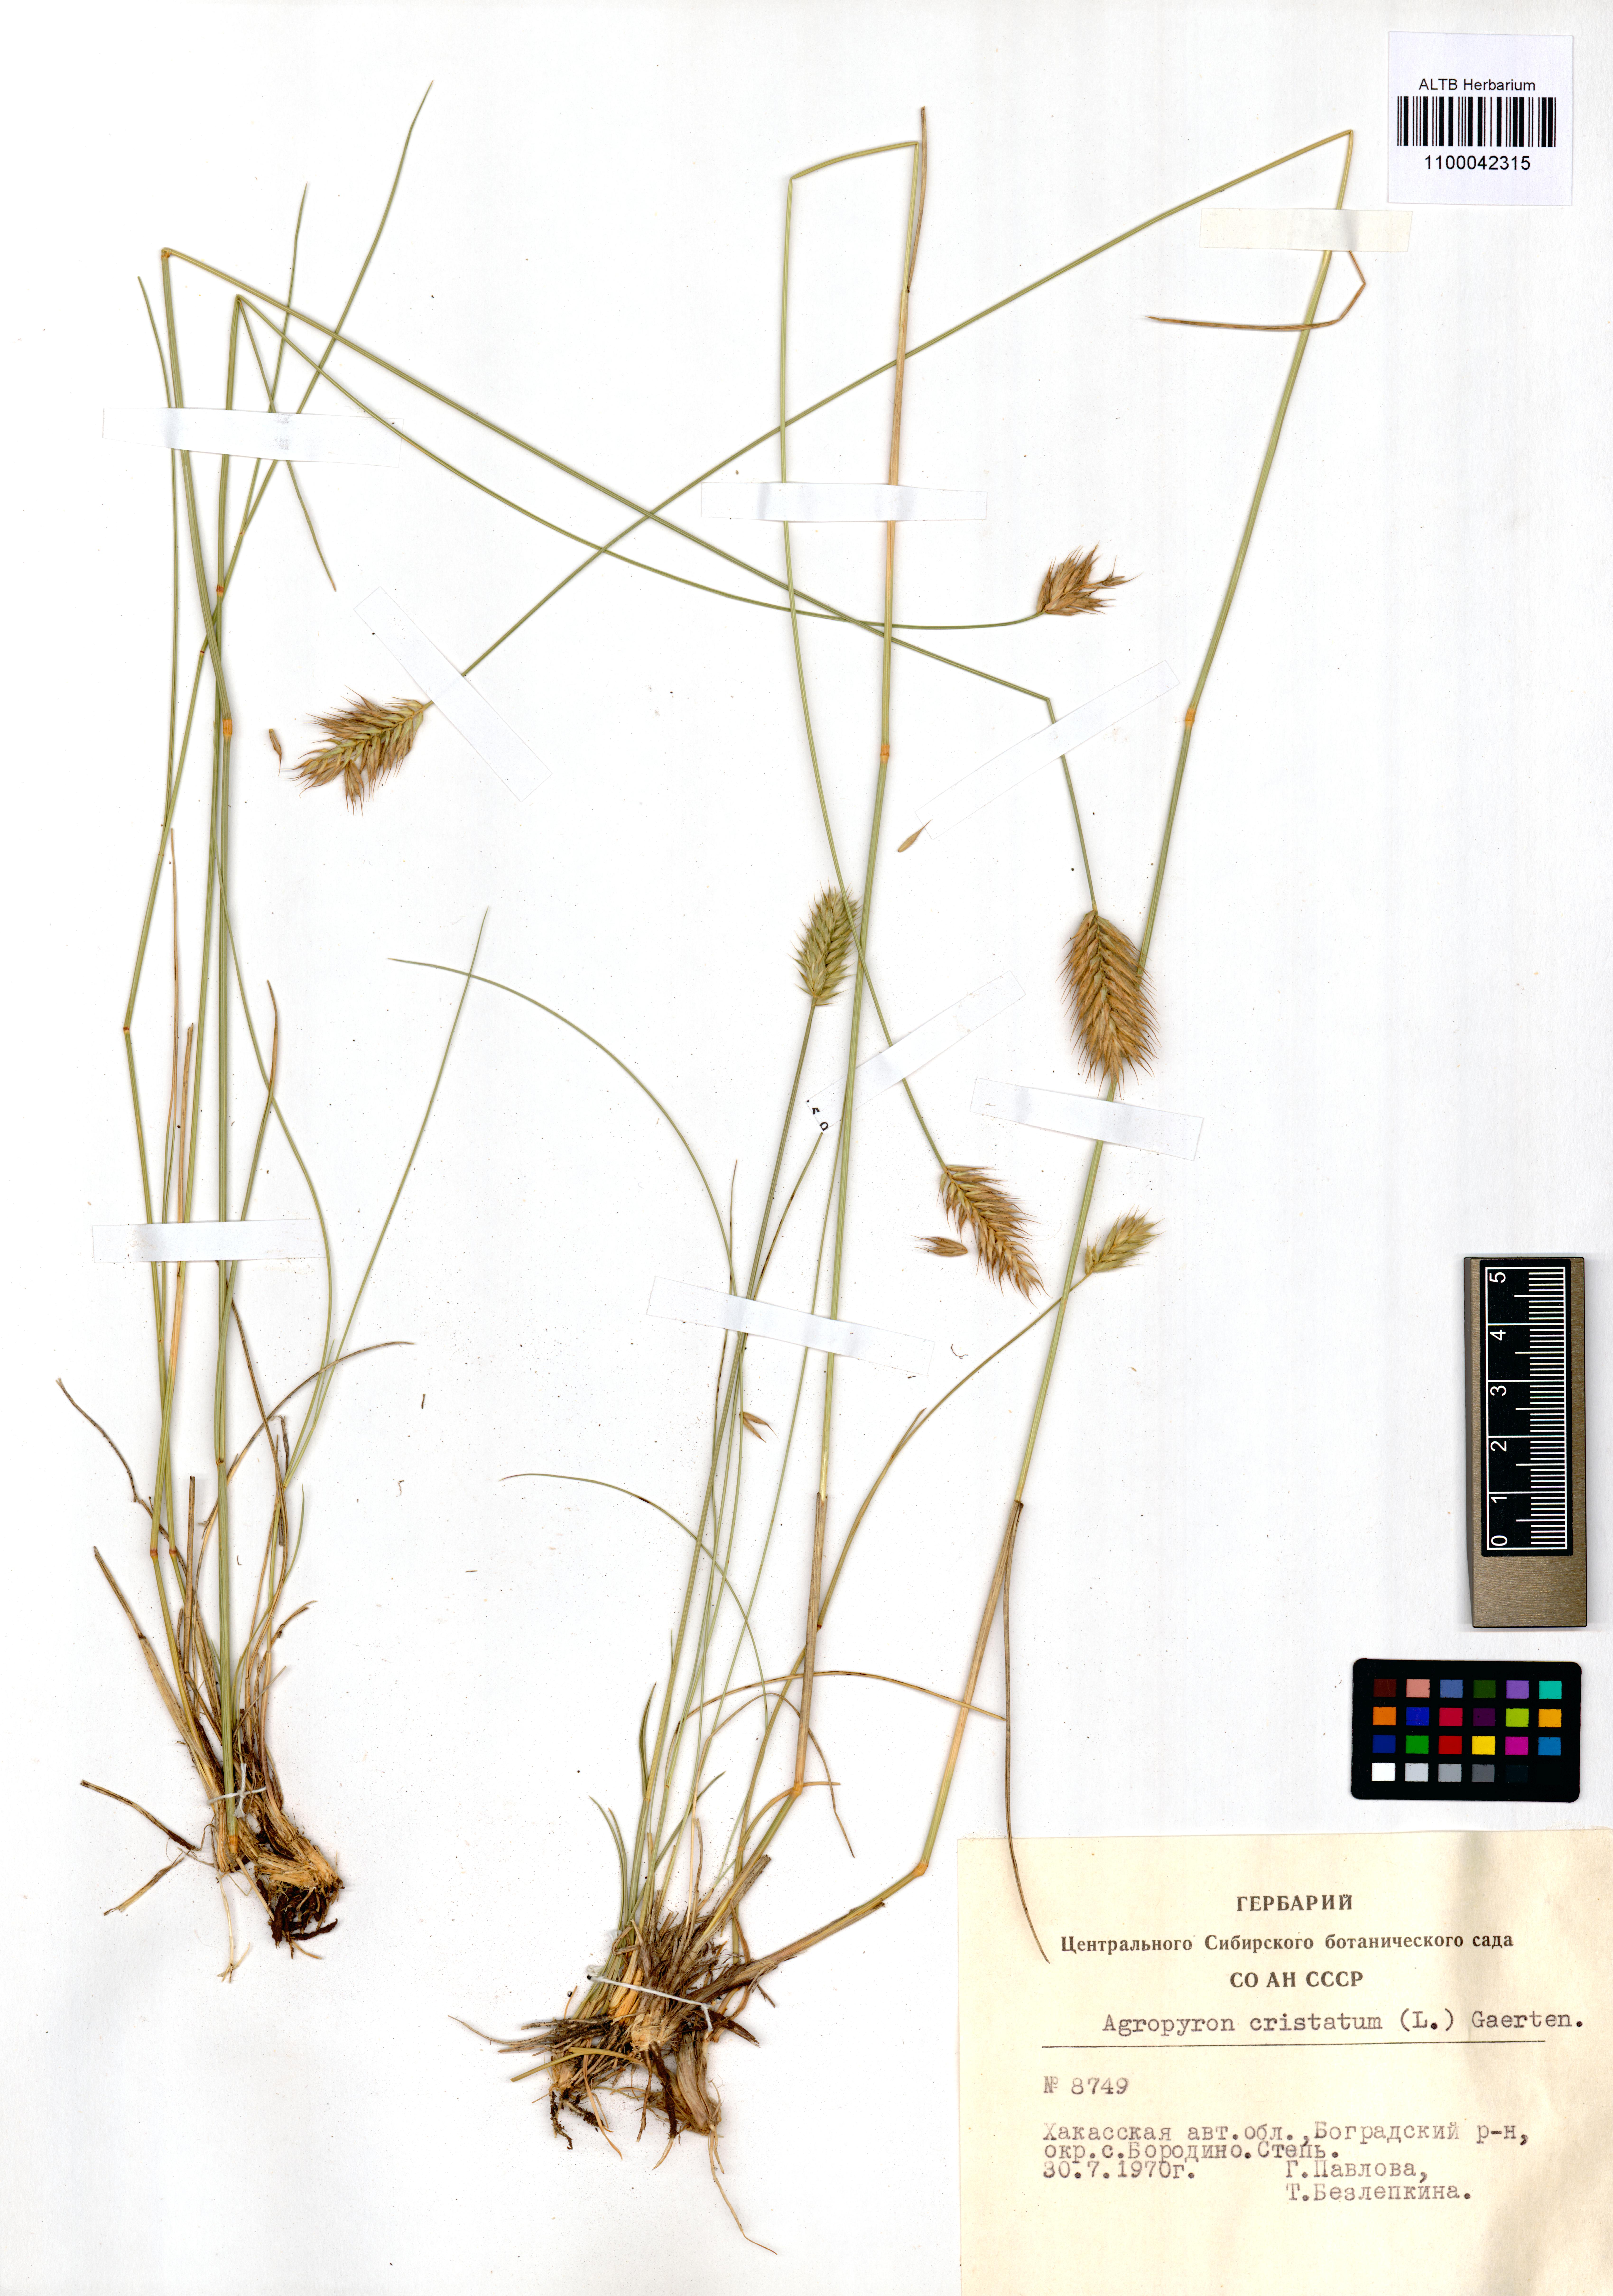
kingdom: Plantae
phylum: Tracheophyta
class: Liliopsida
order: Poales
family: Poaceae
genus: Agropyron
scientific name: Agropyron cristatum
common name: Crested wheatgrass
